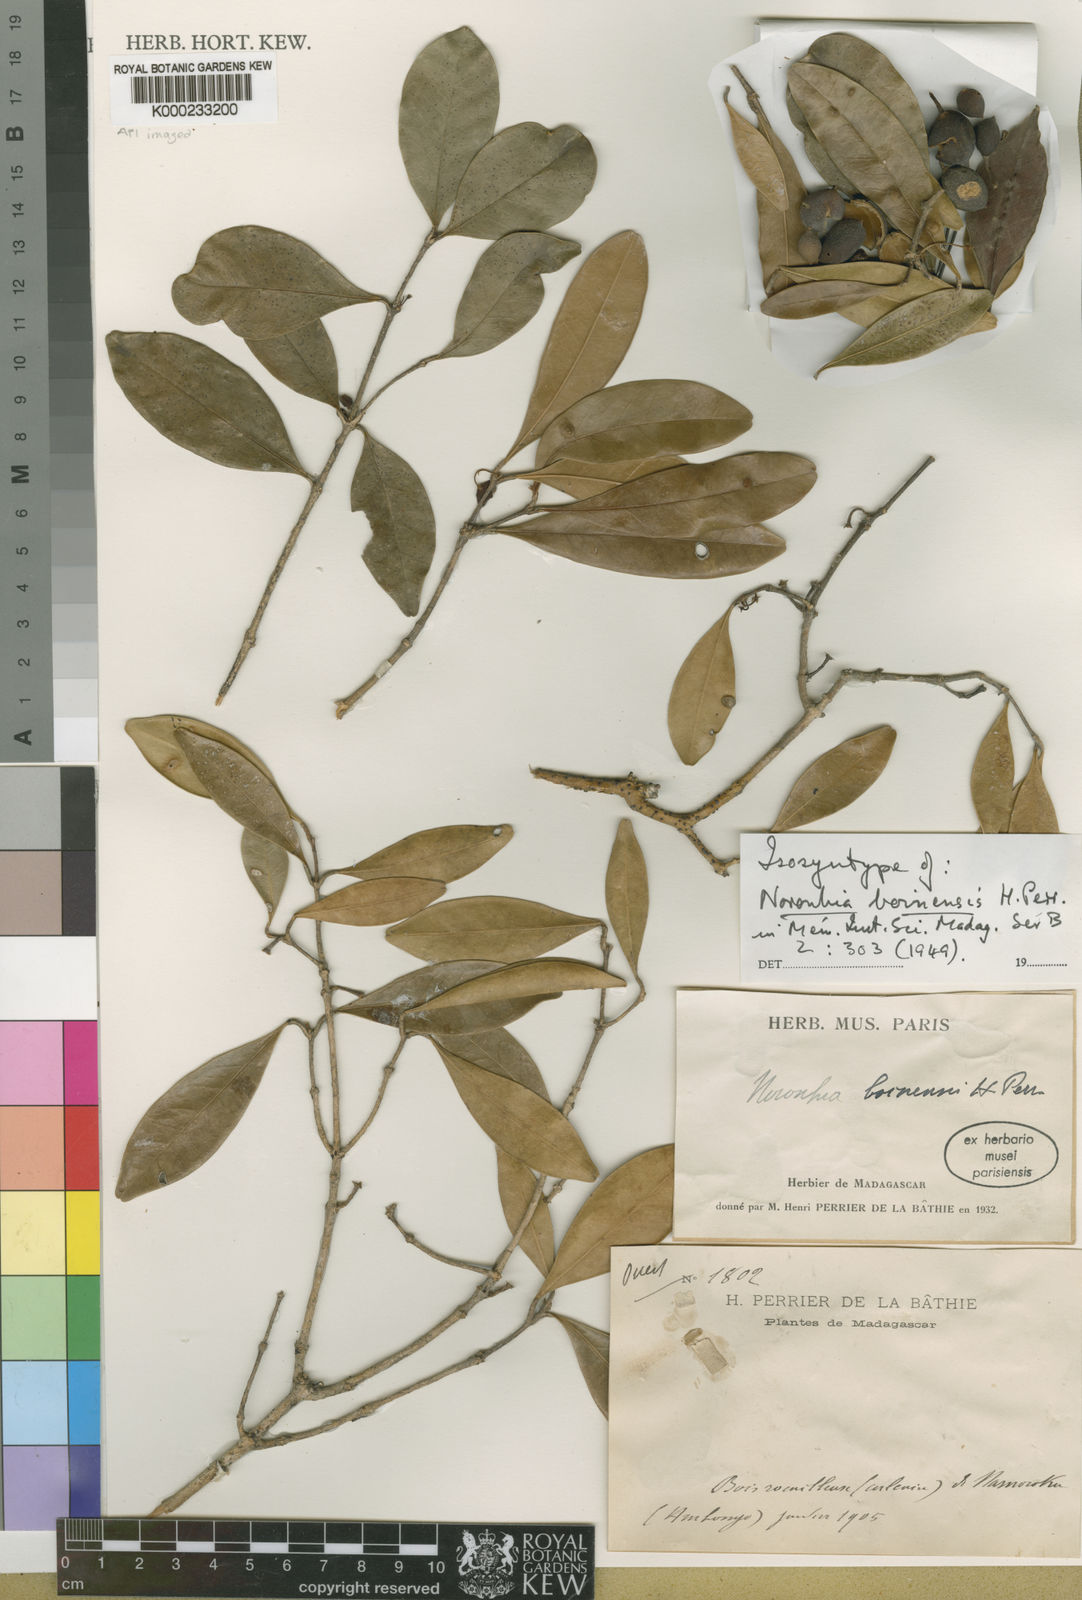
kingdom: Plantae
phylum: Tracheophyta
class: Magnoliopsida
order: Lamiales
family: Oleaceae
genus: Noronhia
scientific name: Noronhia boinensis
